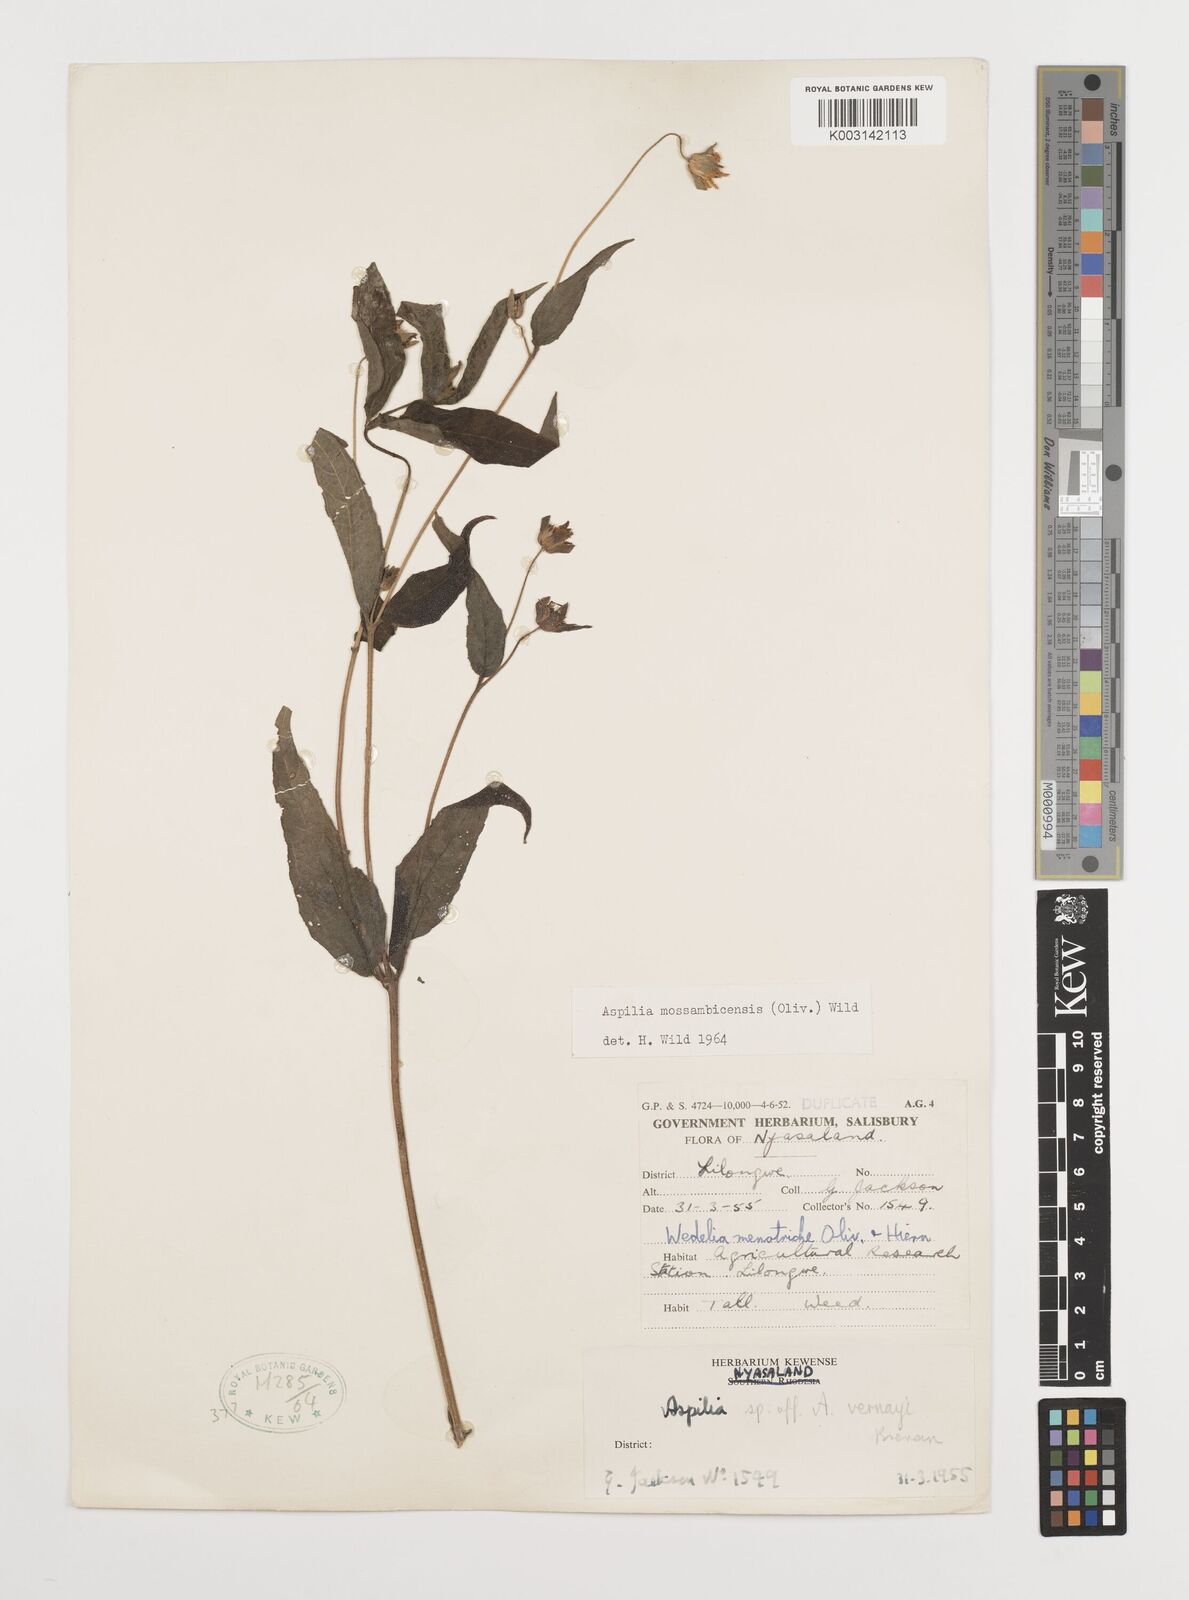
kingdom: Plantae
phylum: Tracheophyta
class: Magnoliopsida
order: Asterales
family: Asteraceae
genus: Aspilia
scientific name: Aspilia mossambicensis
